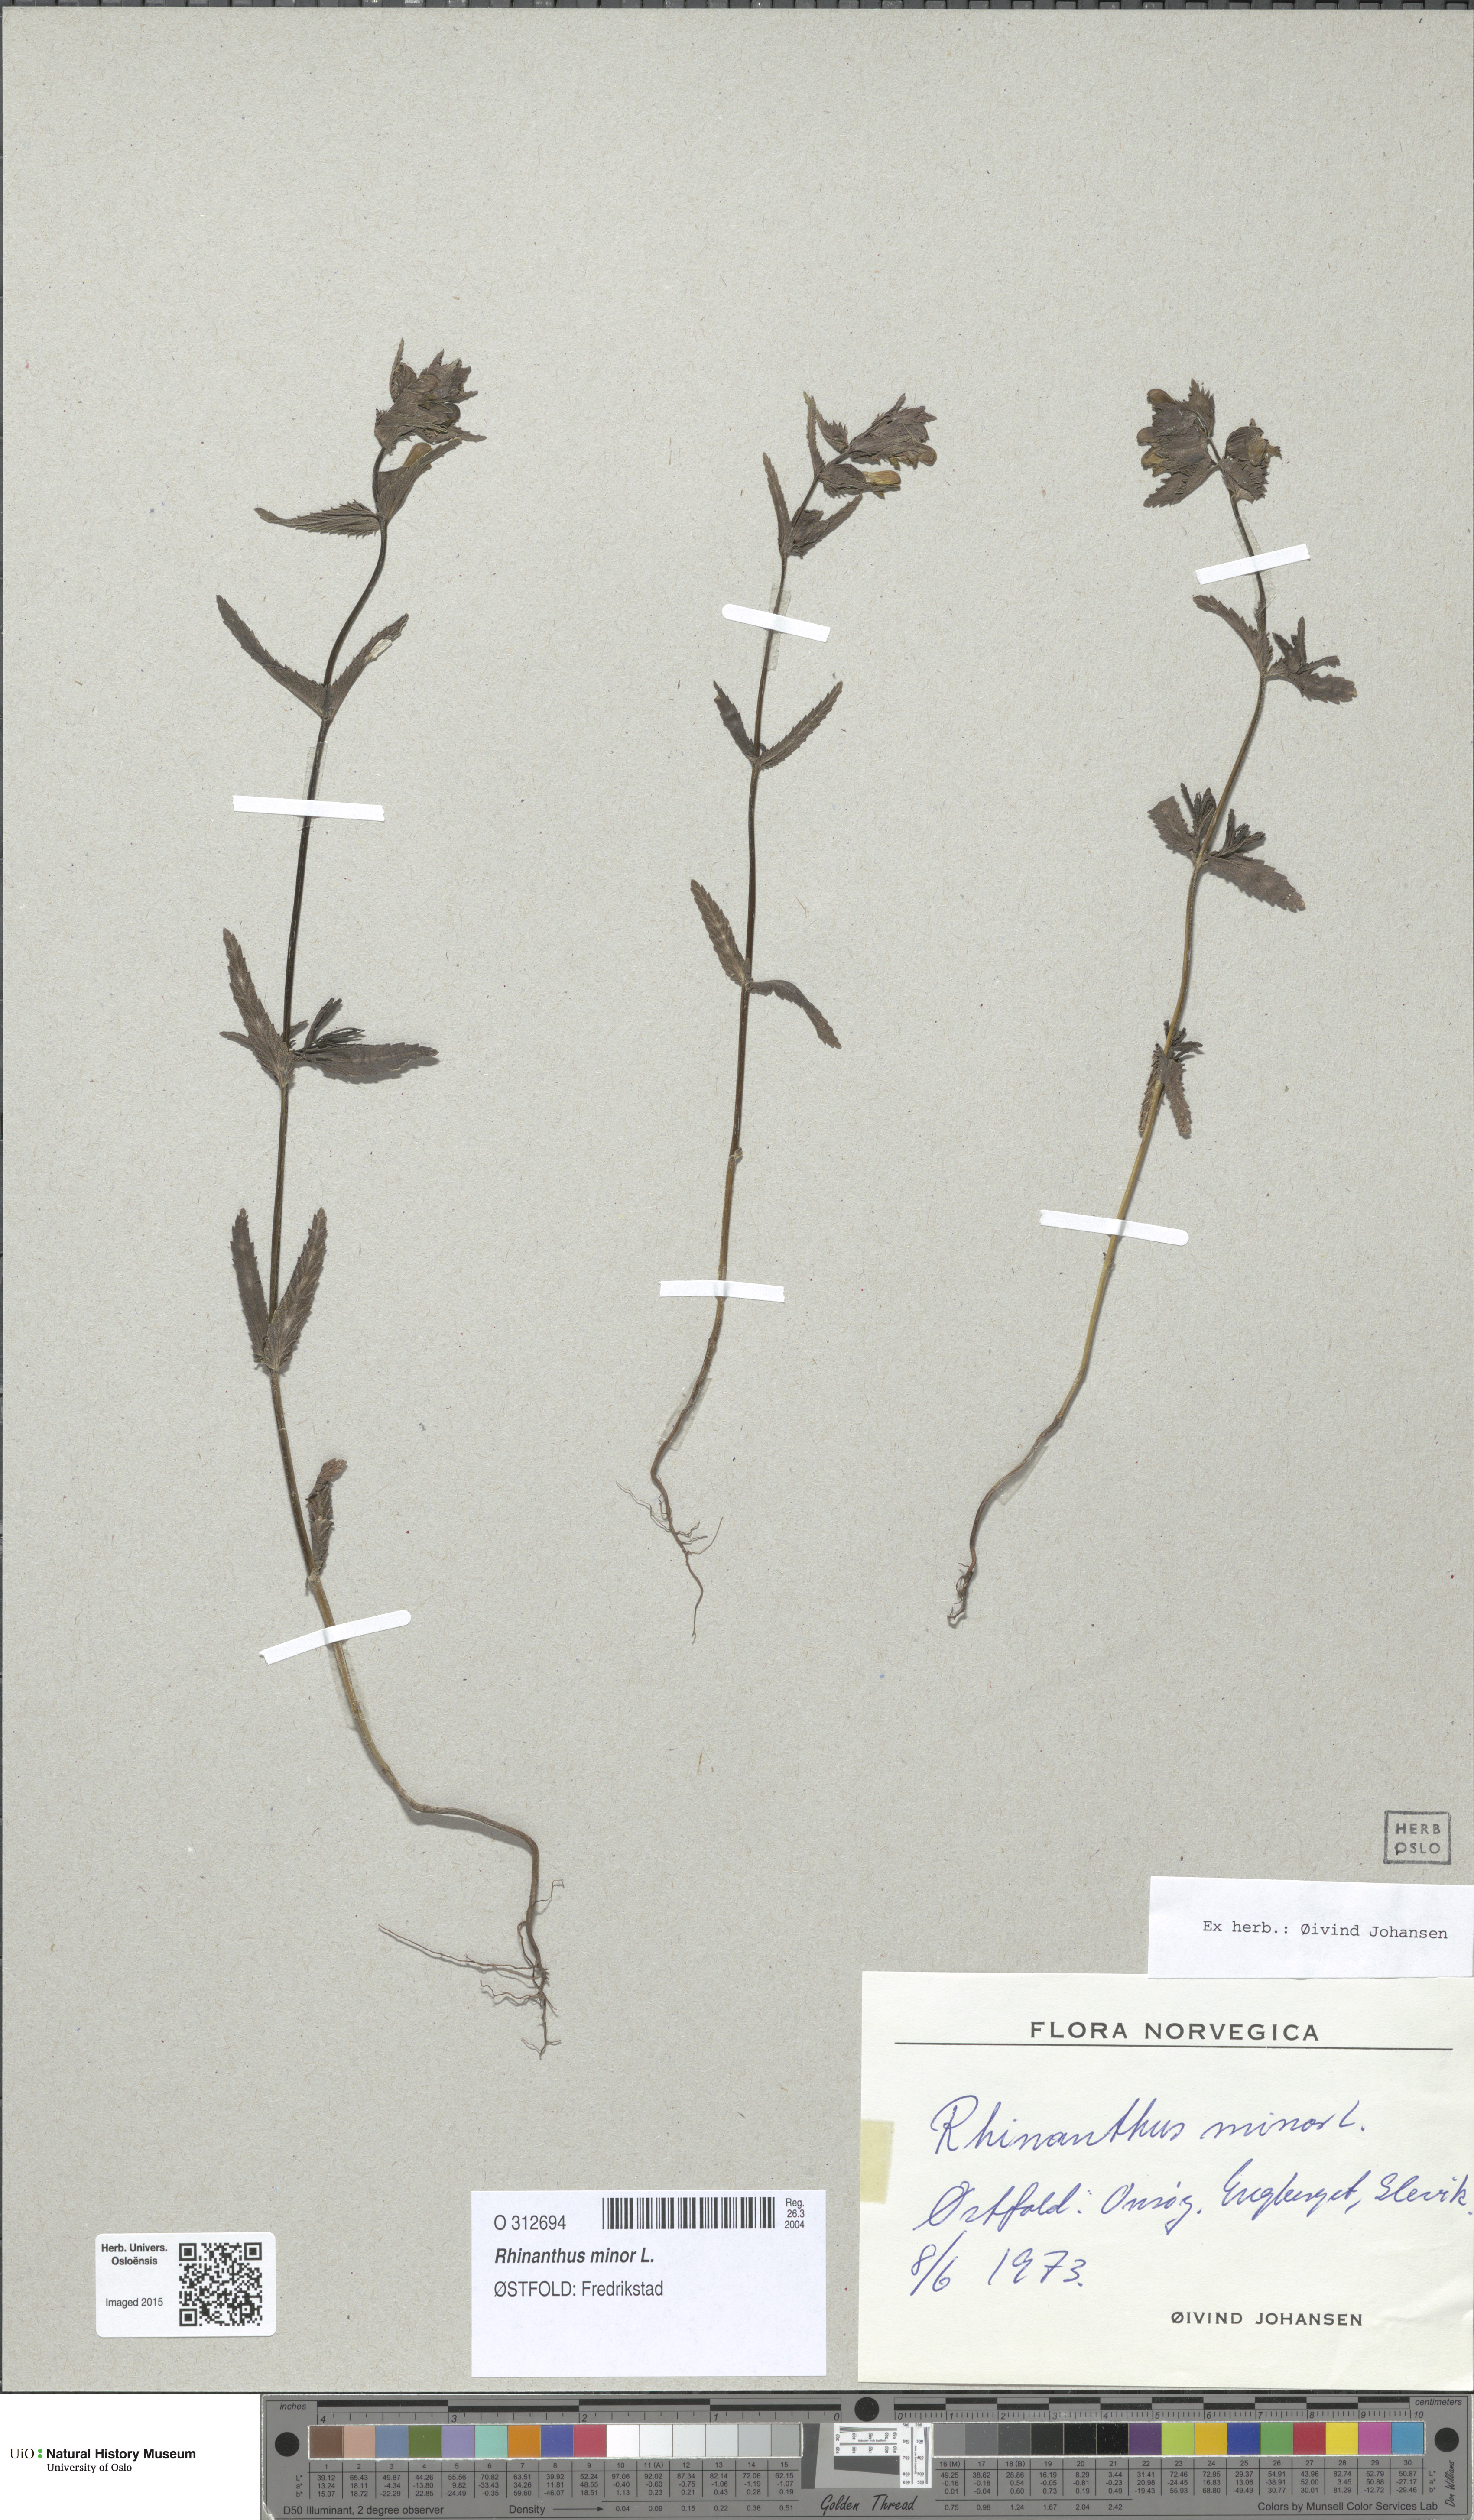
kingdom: Plantae
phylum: Tracheophyta
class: Magnoliopsida
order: Lamiales
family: Orobanchaceae
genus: Rhinanthus
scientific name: Rhinanthus minor
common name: Yellow-rattle
